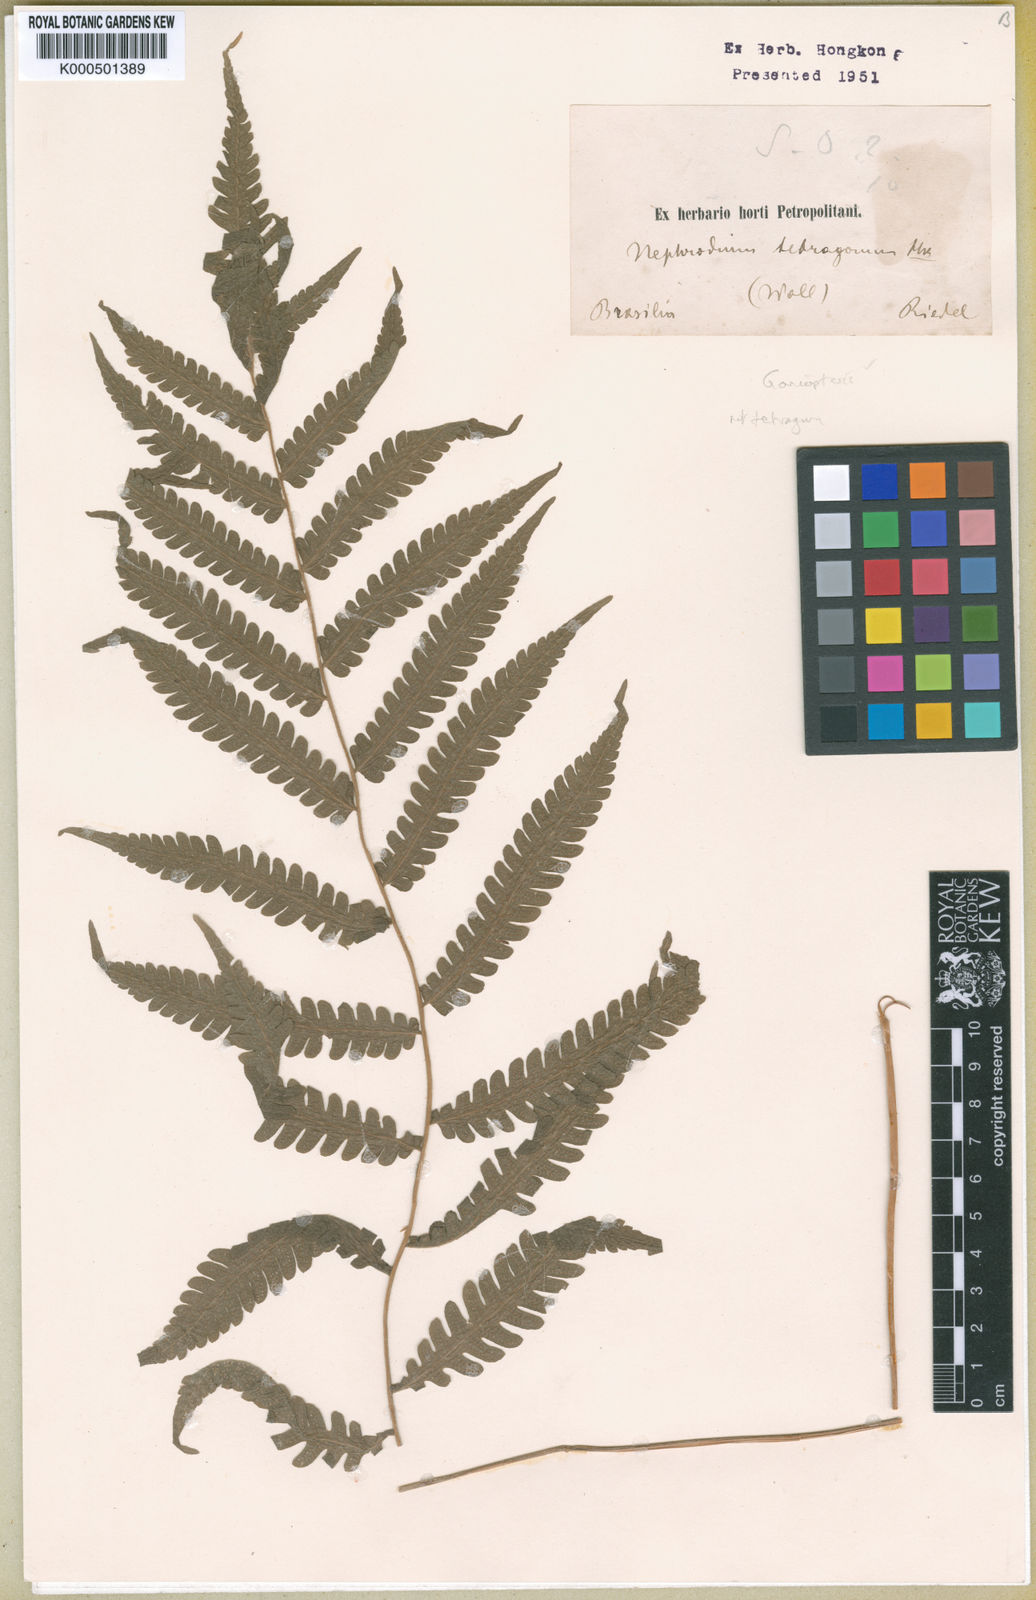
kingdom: Plantae
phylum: Tracheophyta
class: Polypodiopsida
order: Polypodiales
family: Thelypteridaceae
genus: Goniopteris
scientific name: Goniopteris
